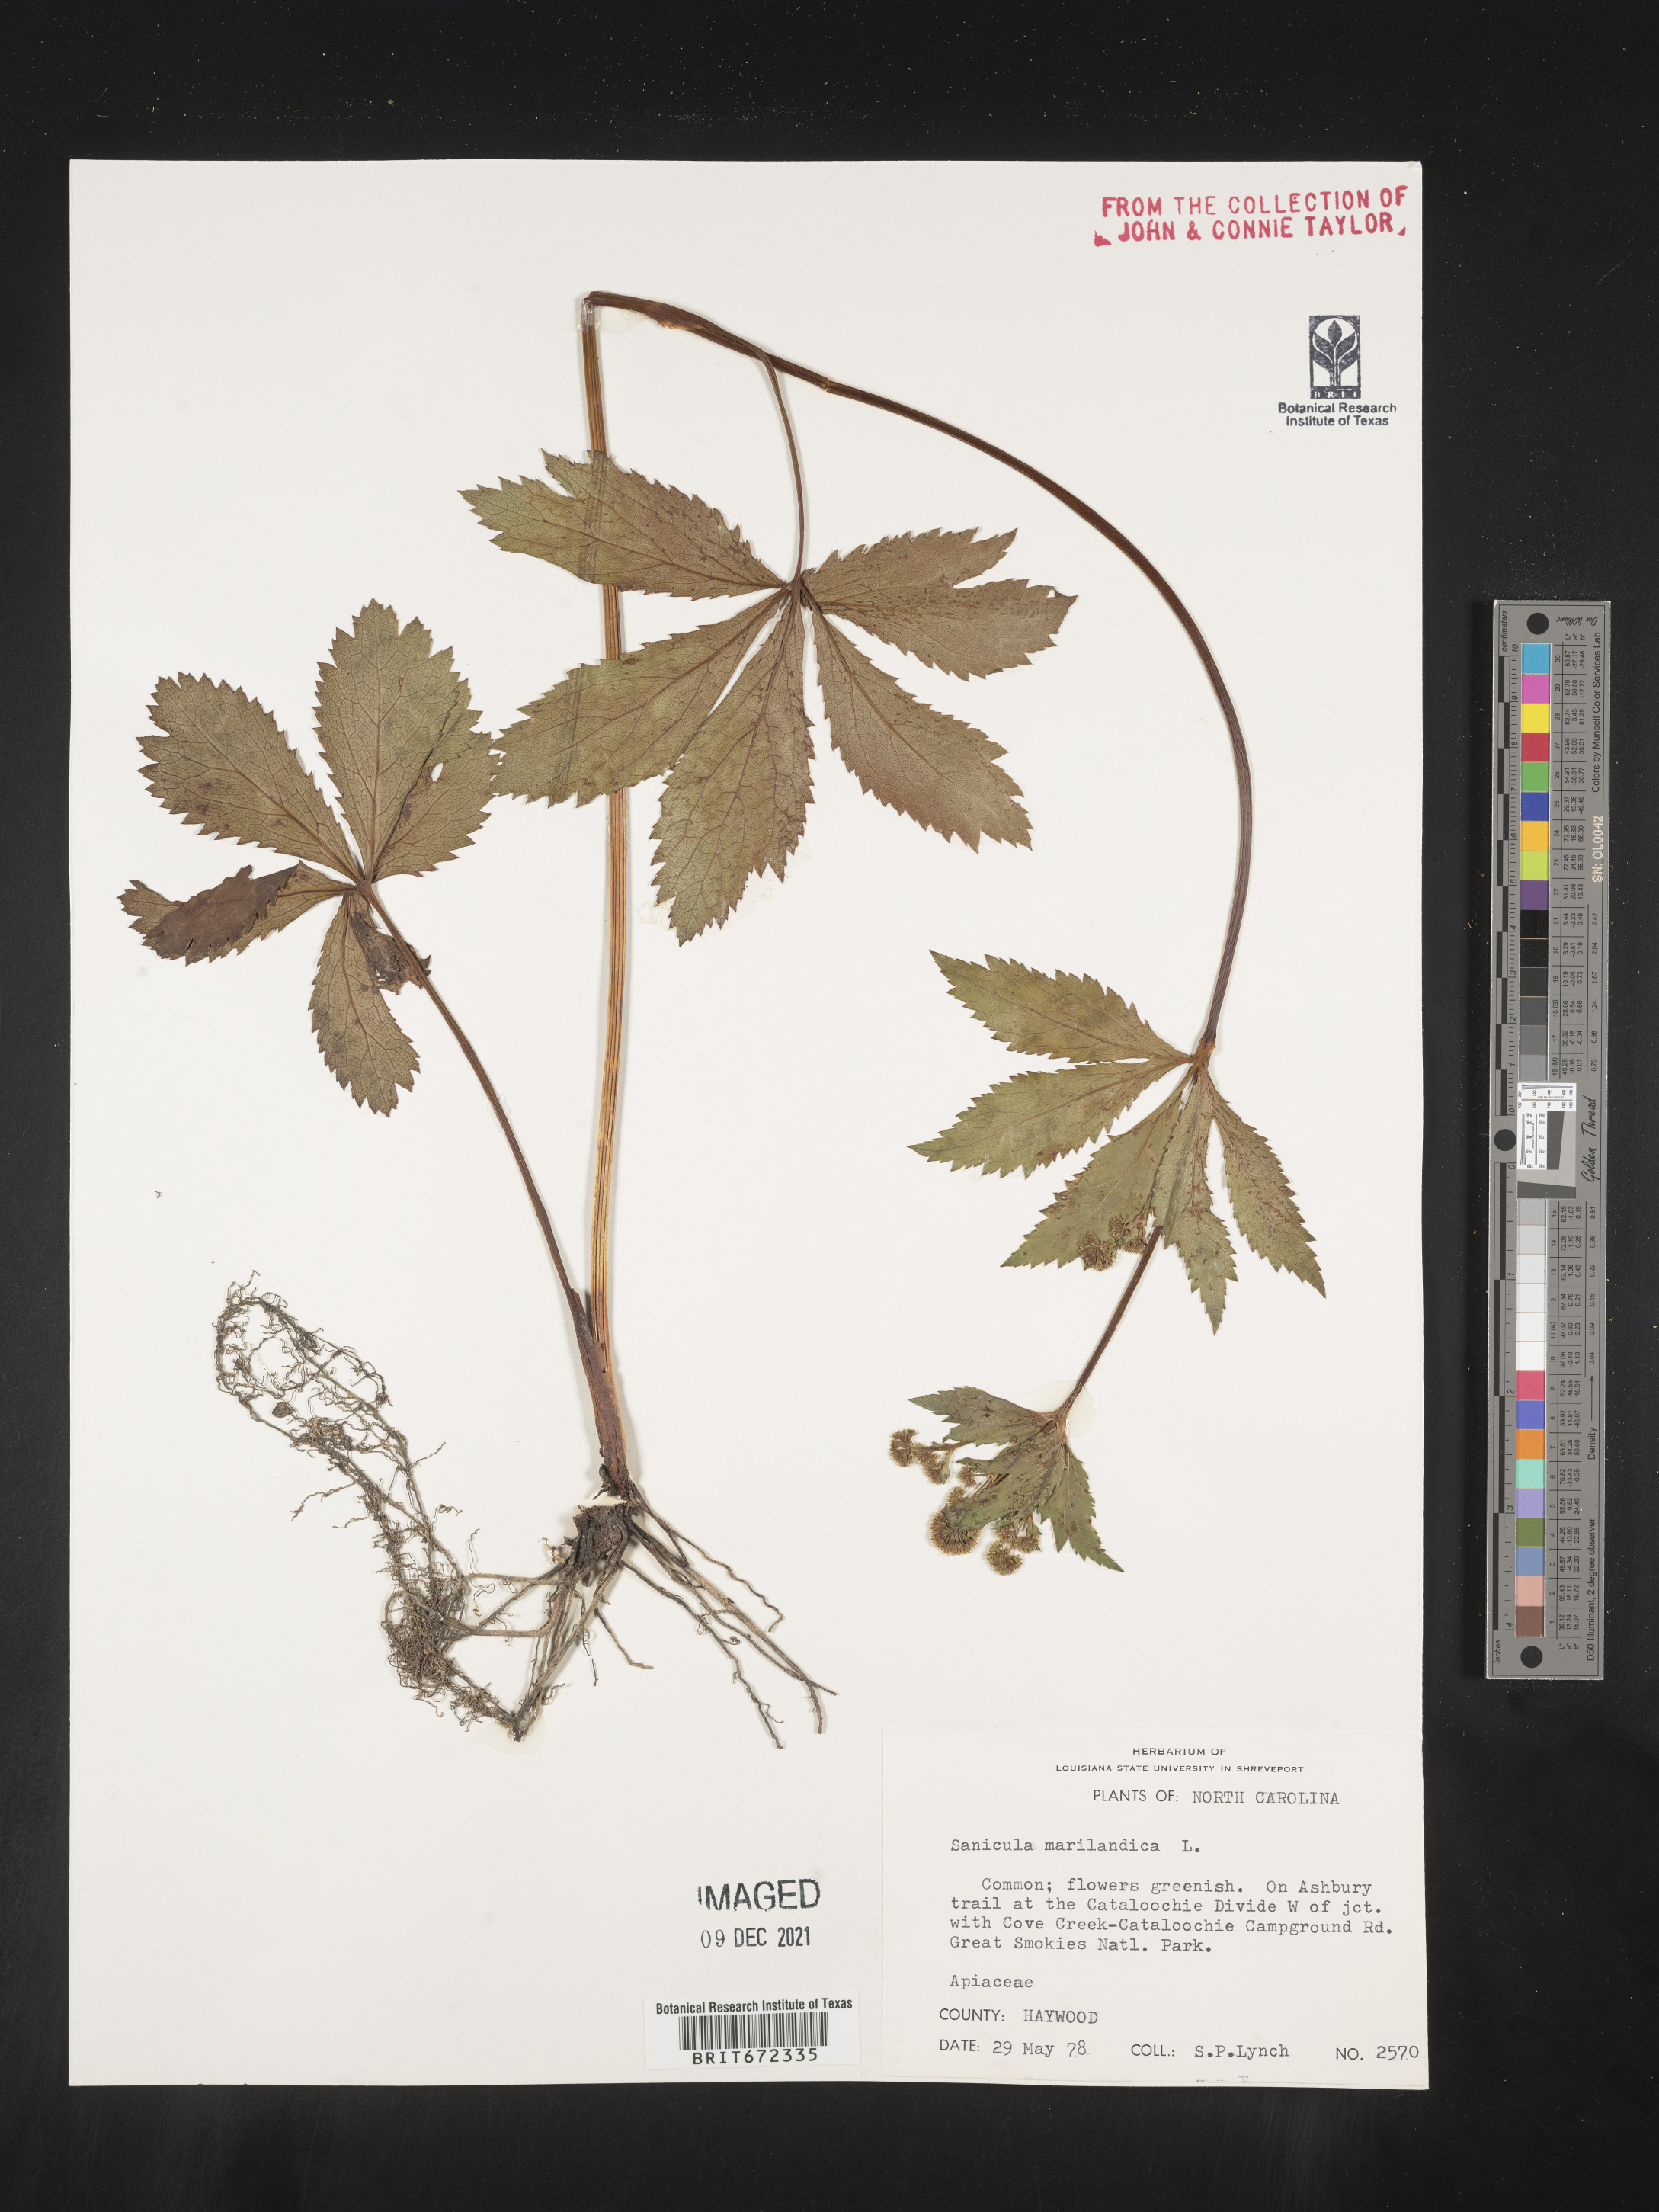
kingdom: Plantae
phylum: Tracheophyta
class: Magnoliopsida
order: Apiales
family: Apiaceae
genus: Sanicula
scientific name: Sanicula marilandica
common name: Black snakeroot
